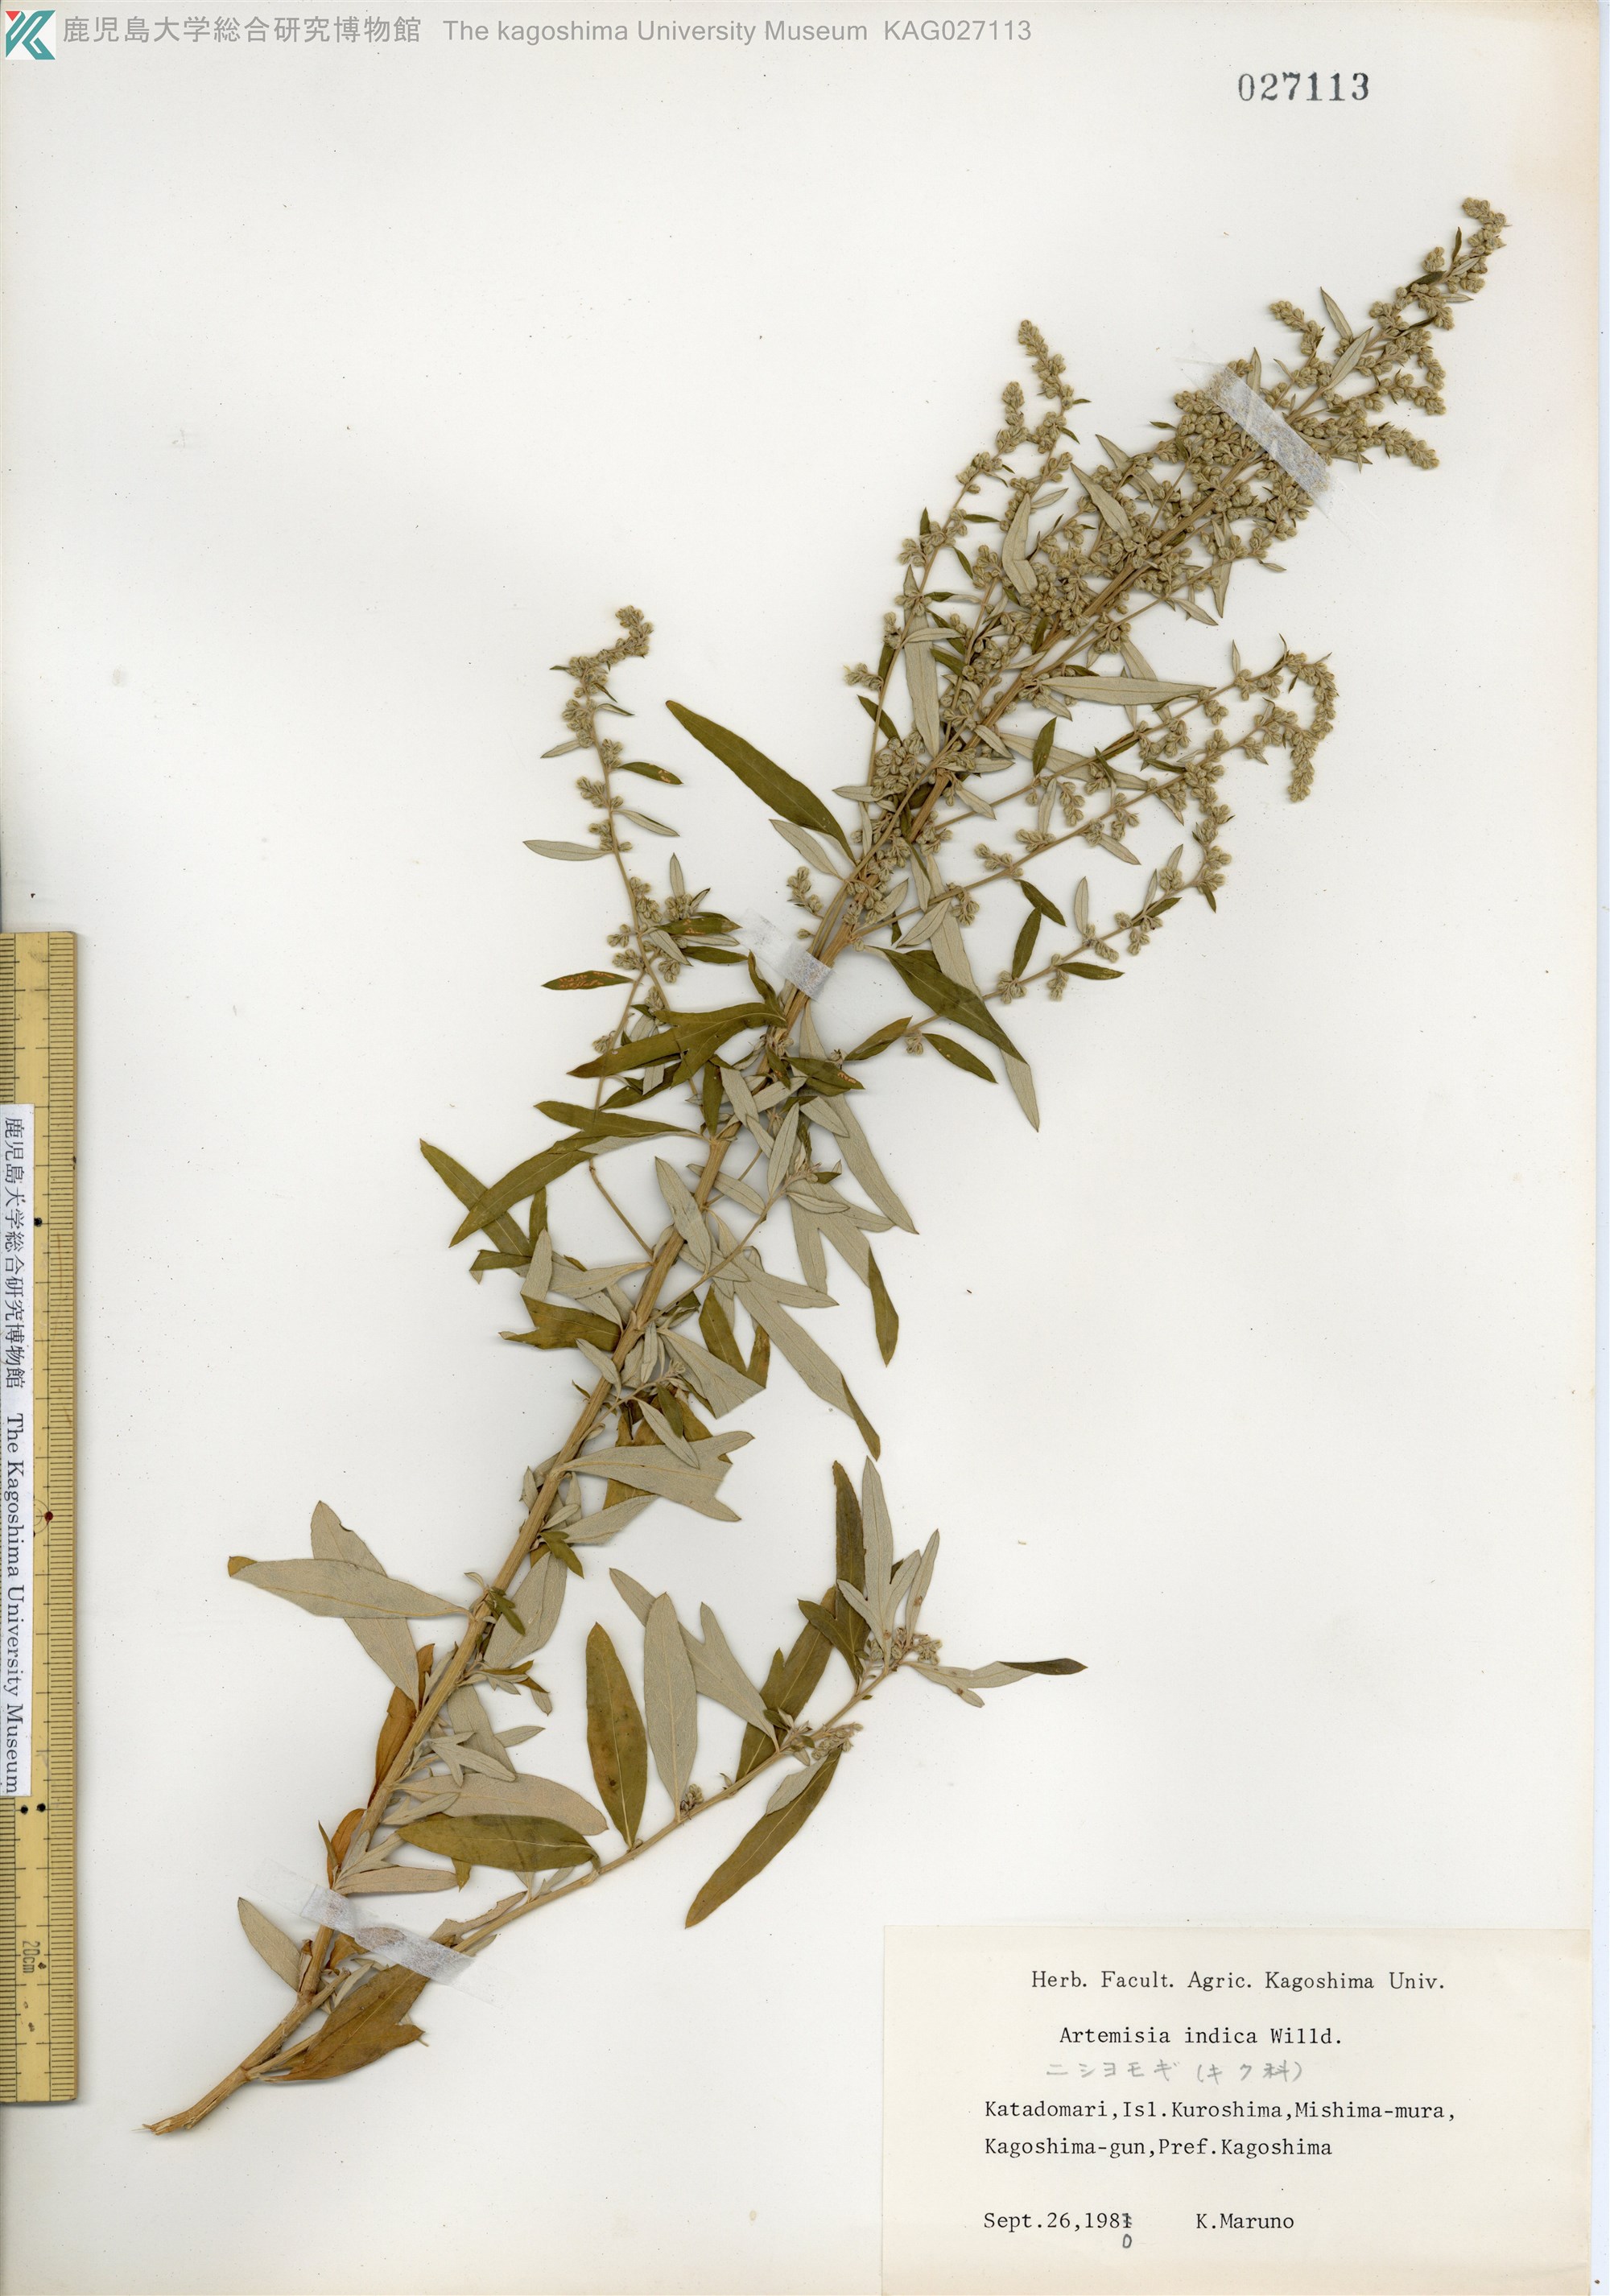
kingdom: Plantae
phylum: Tracheophyta
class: Magnoliopsida
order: Asterales
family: Asteraceae
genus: Artemisia
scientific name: Artemisia indica
